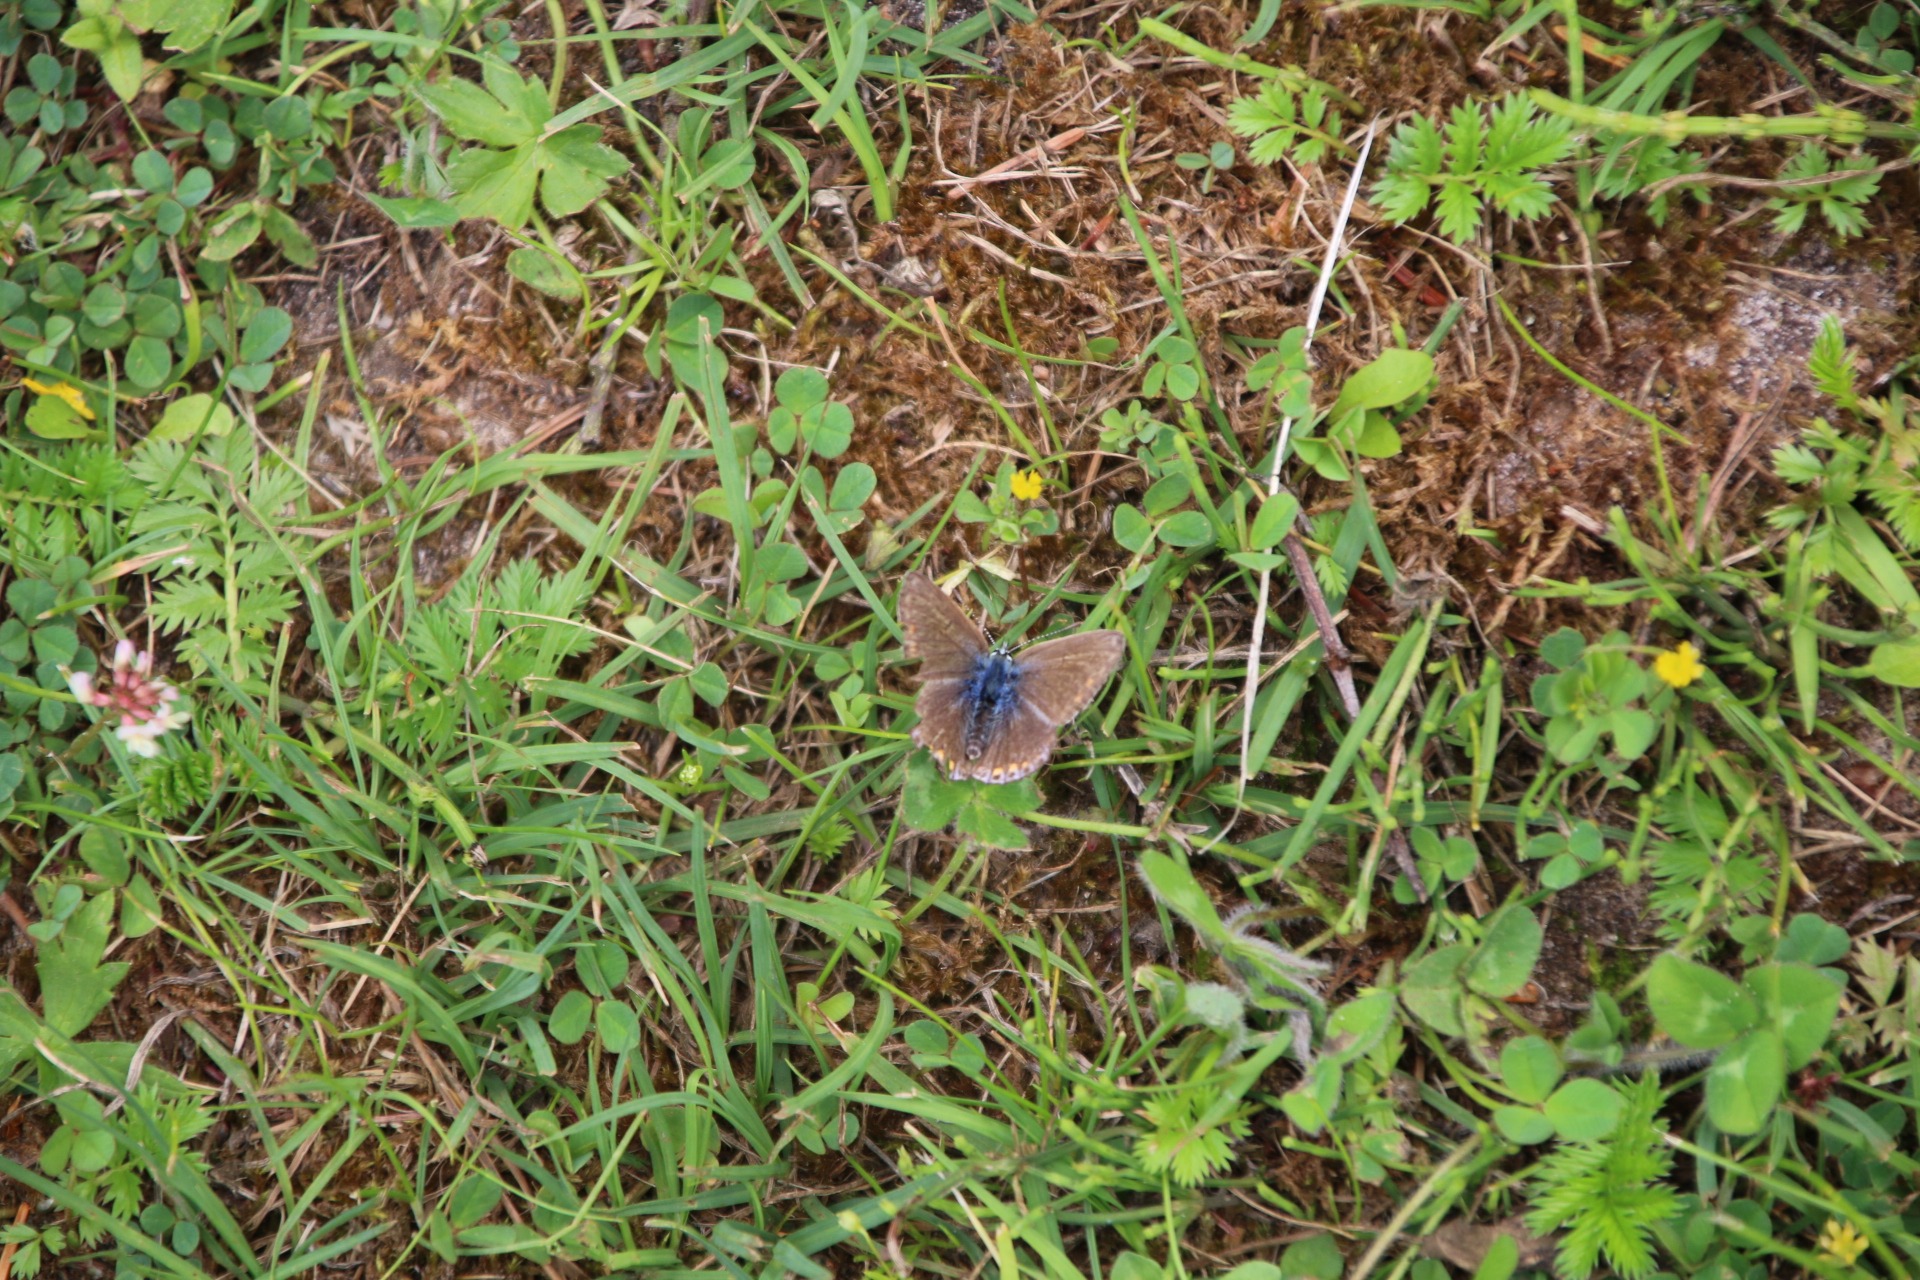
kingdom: Animalia
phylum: Arthropoda
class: Insecta
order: Lepidoptera
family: Lycaenidae
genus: Polyommatus
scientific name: Polyommatus icarus
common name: Almindelig blåfugl
